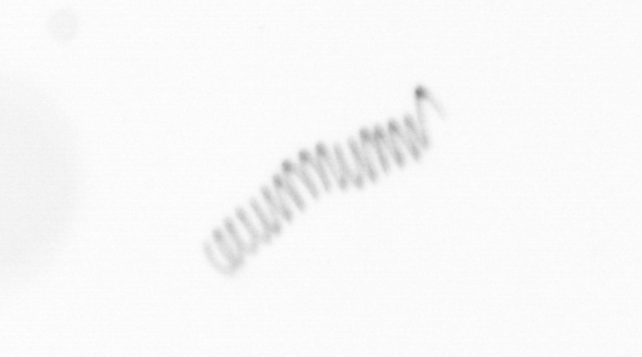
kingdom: Chromista
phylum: Ochrophyta
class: Bacillariophyceae
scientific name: Bacillariophyceae
